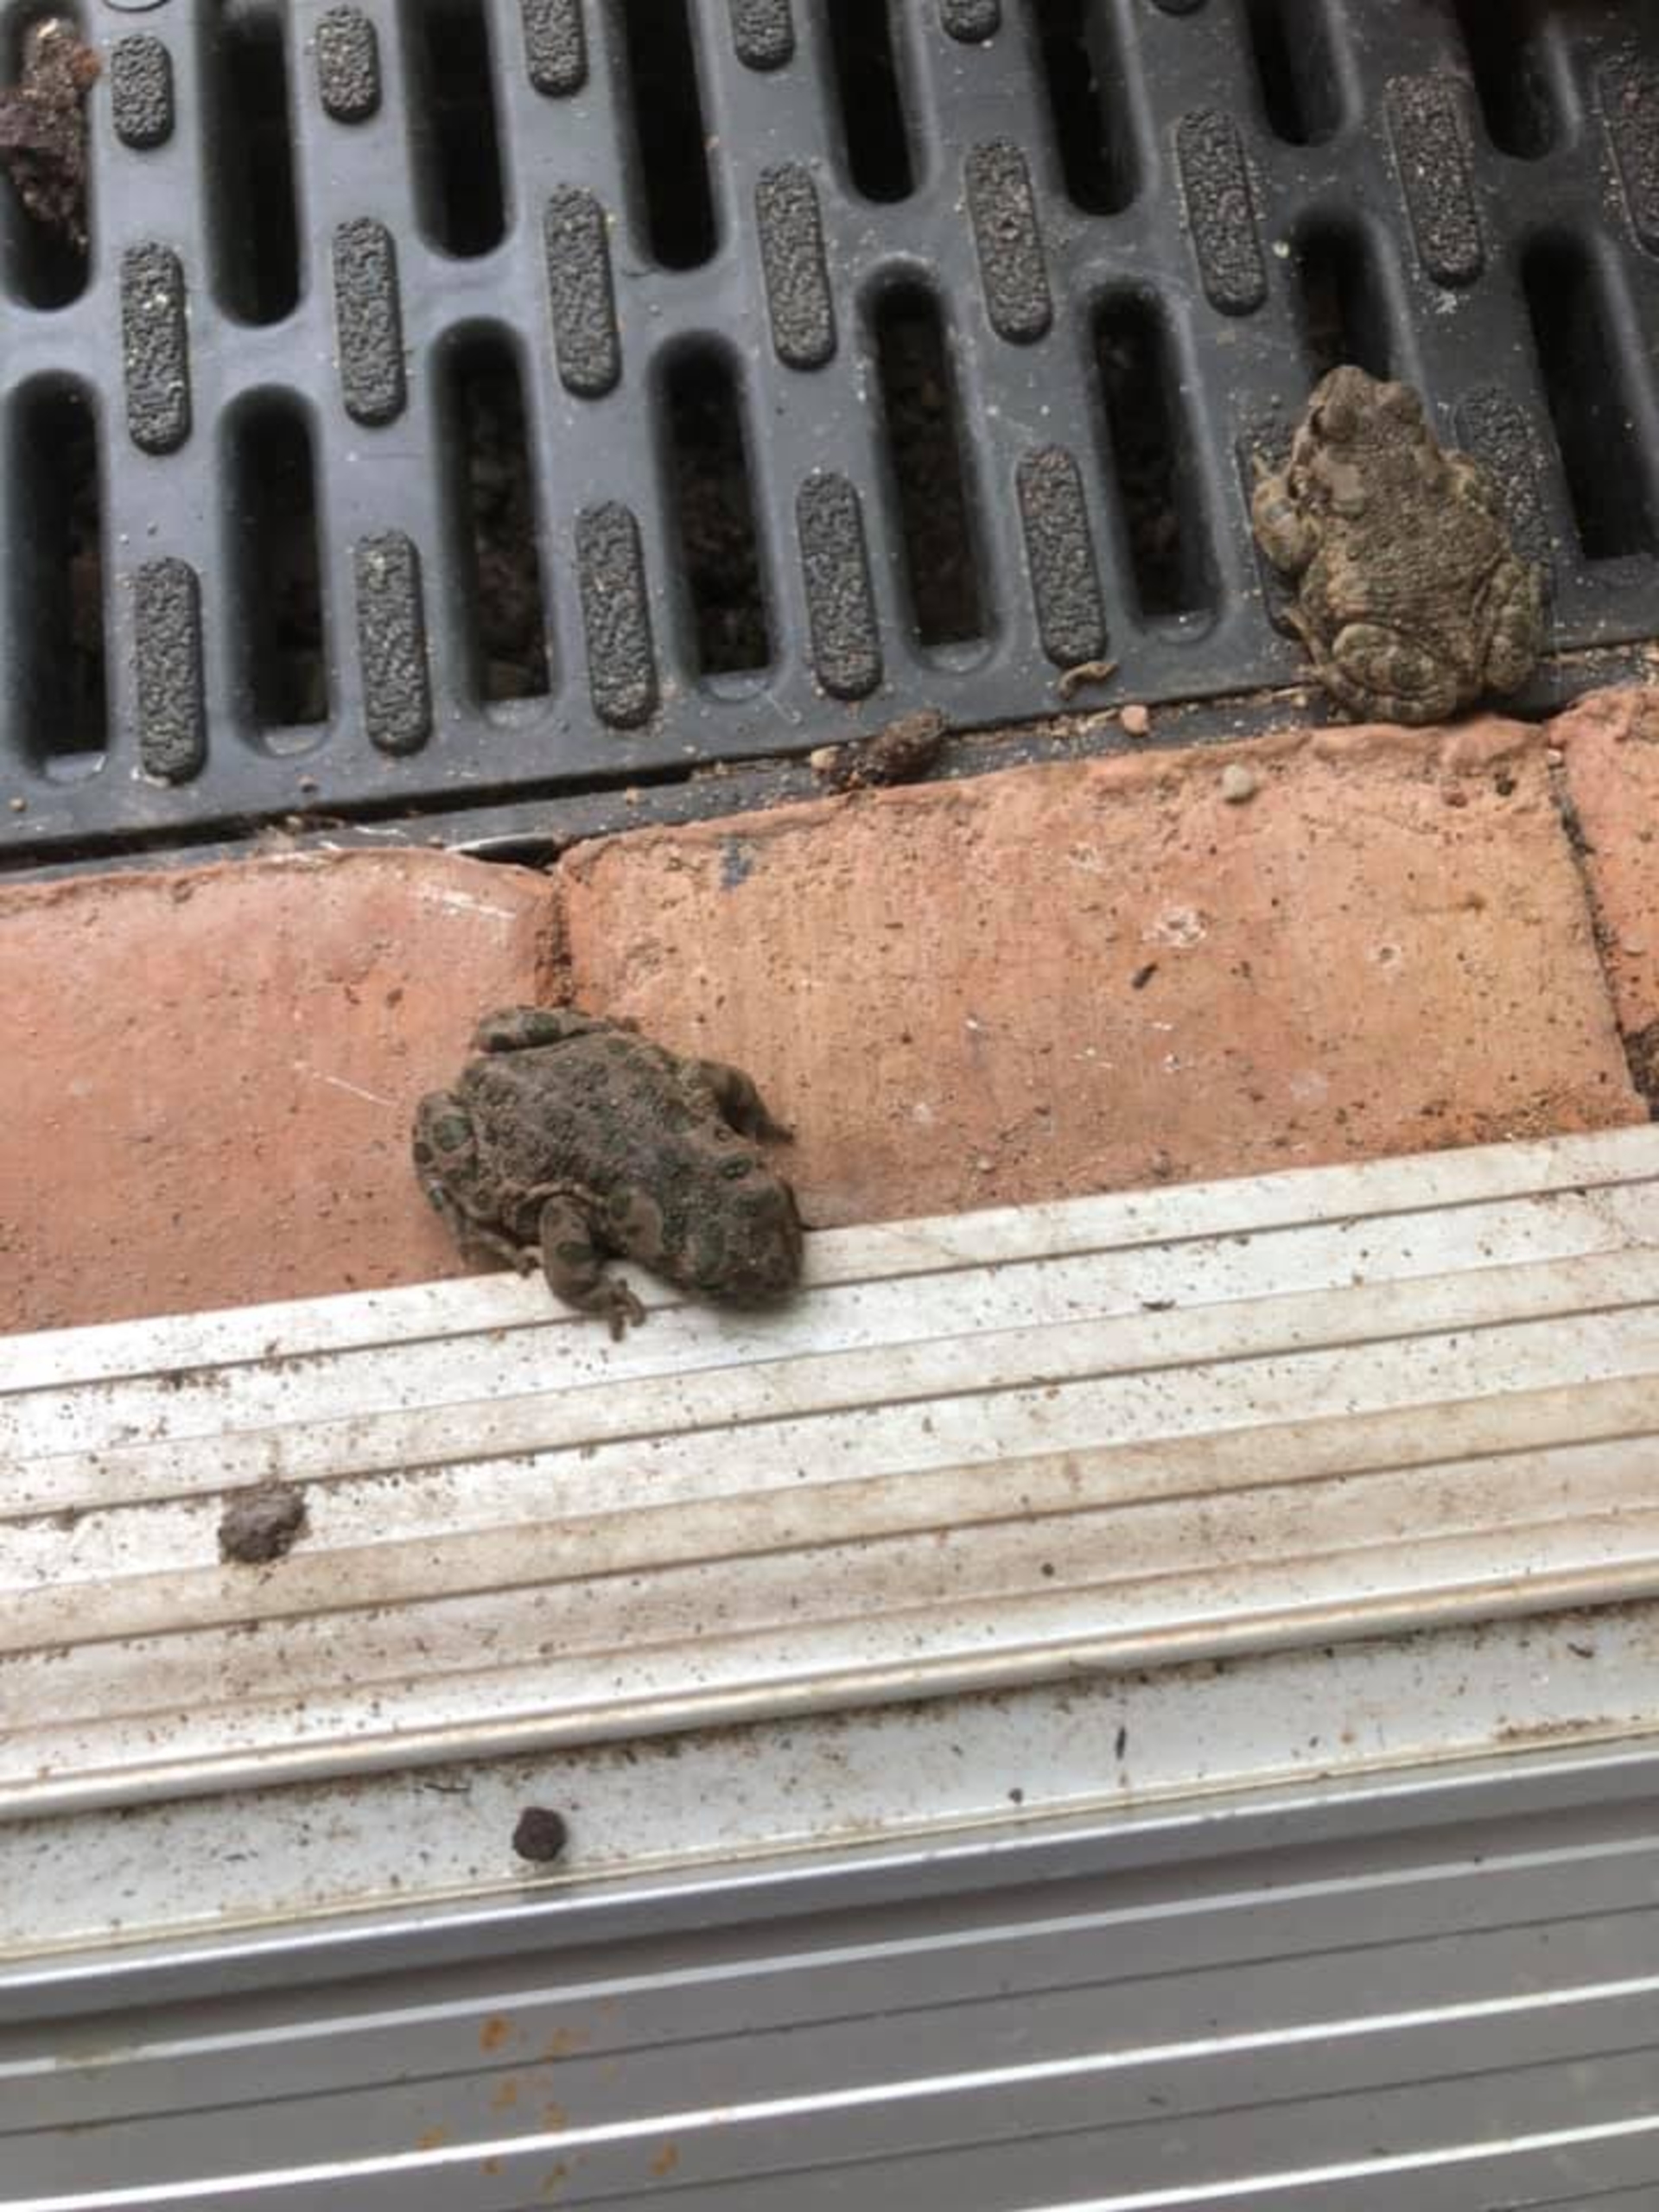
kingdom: Animalia
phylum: Chordata
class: Amphibia
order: Anura
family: Bufonidae
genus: Bufotes
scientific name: Bufotes viridis
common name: Grønbroget tudse
